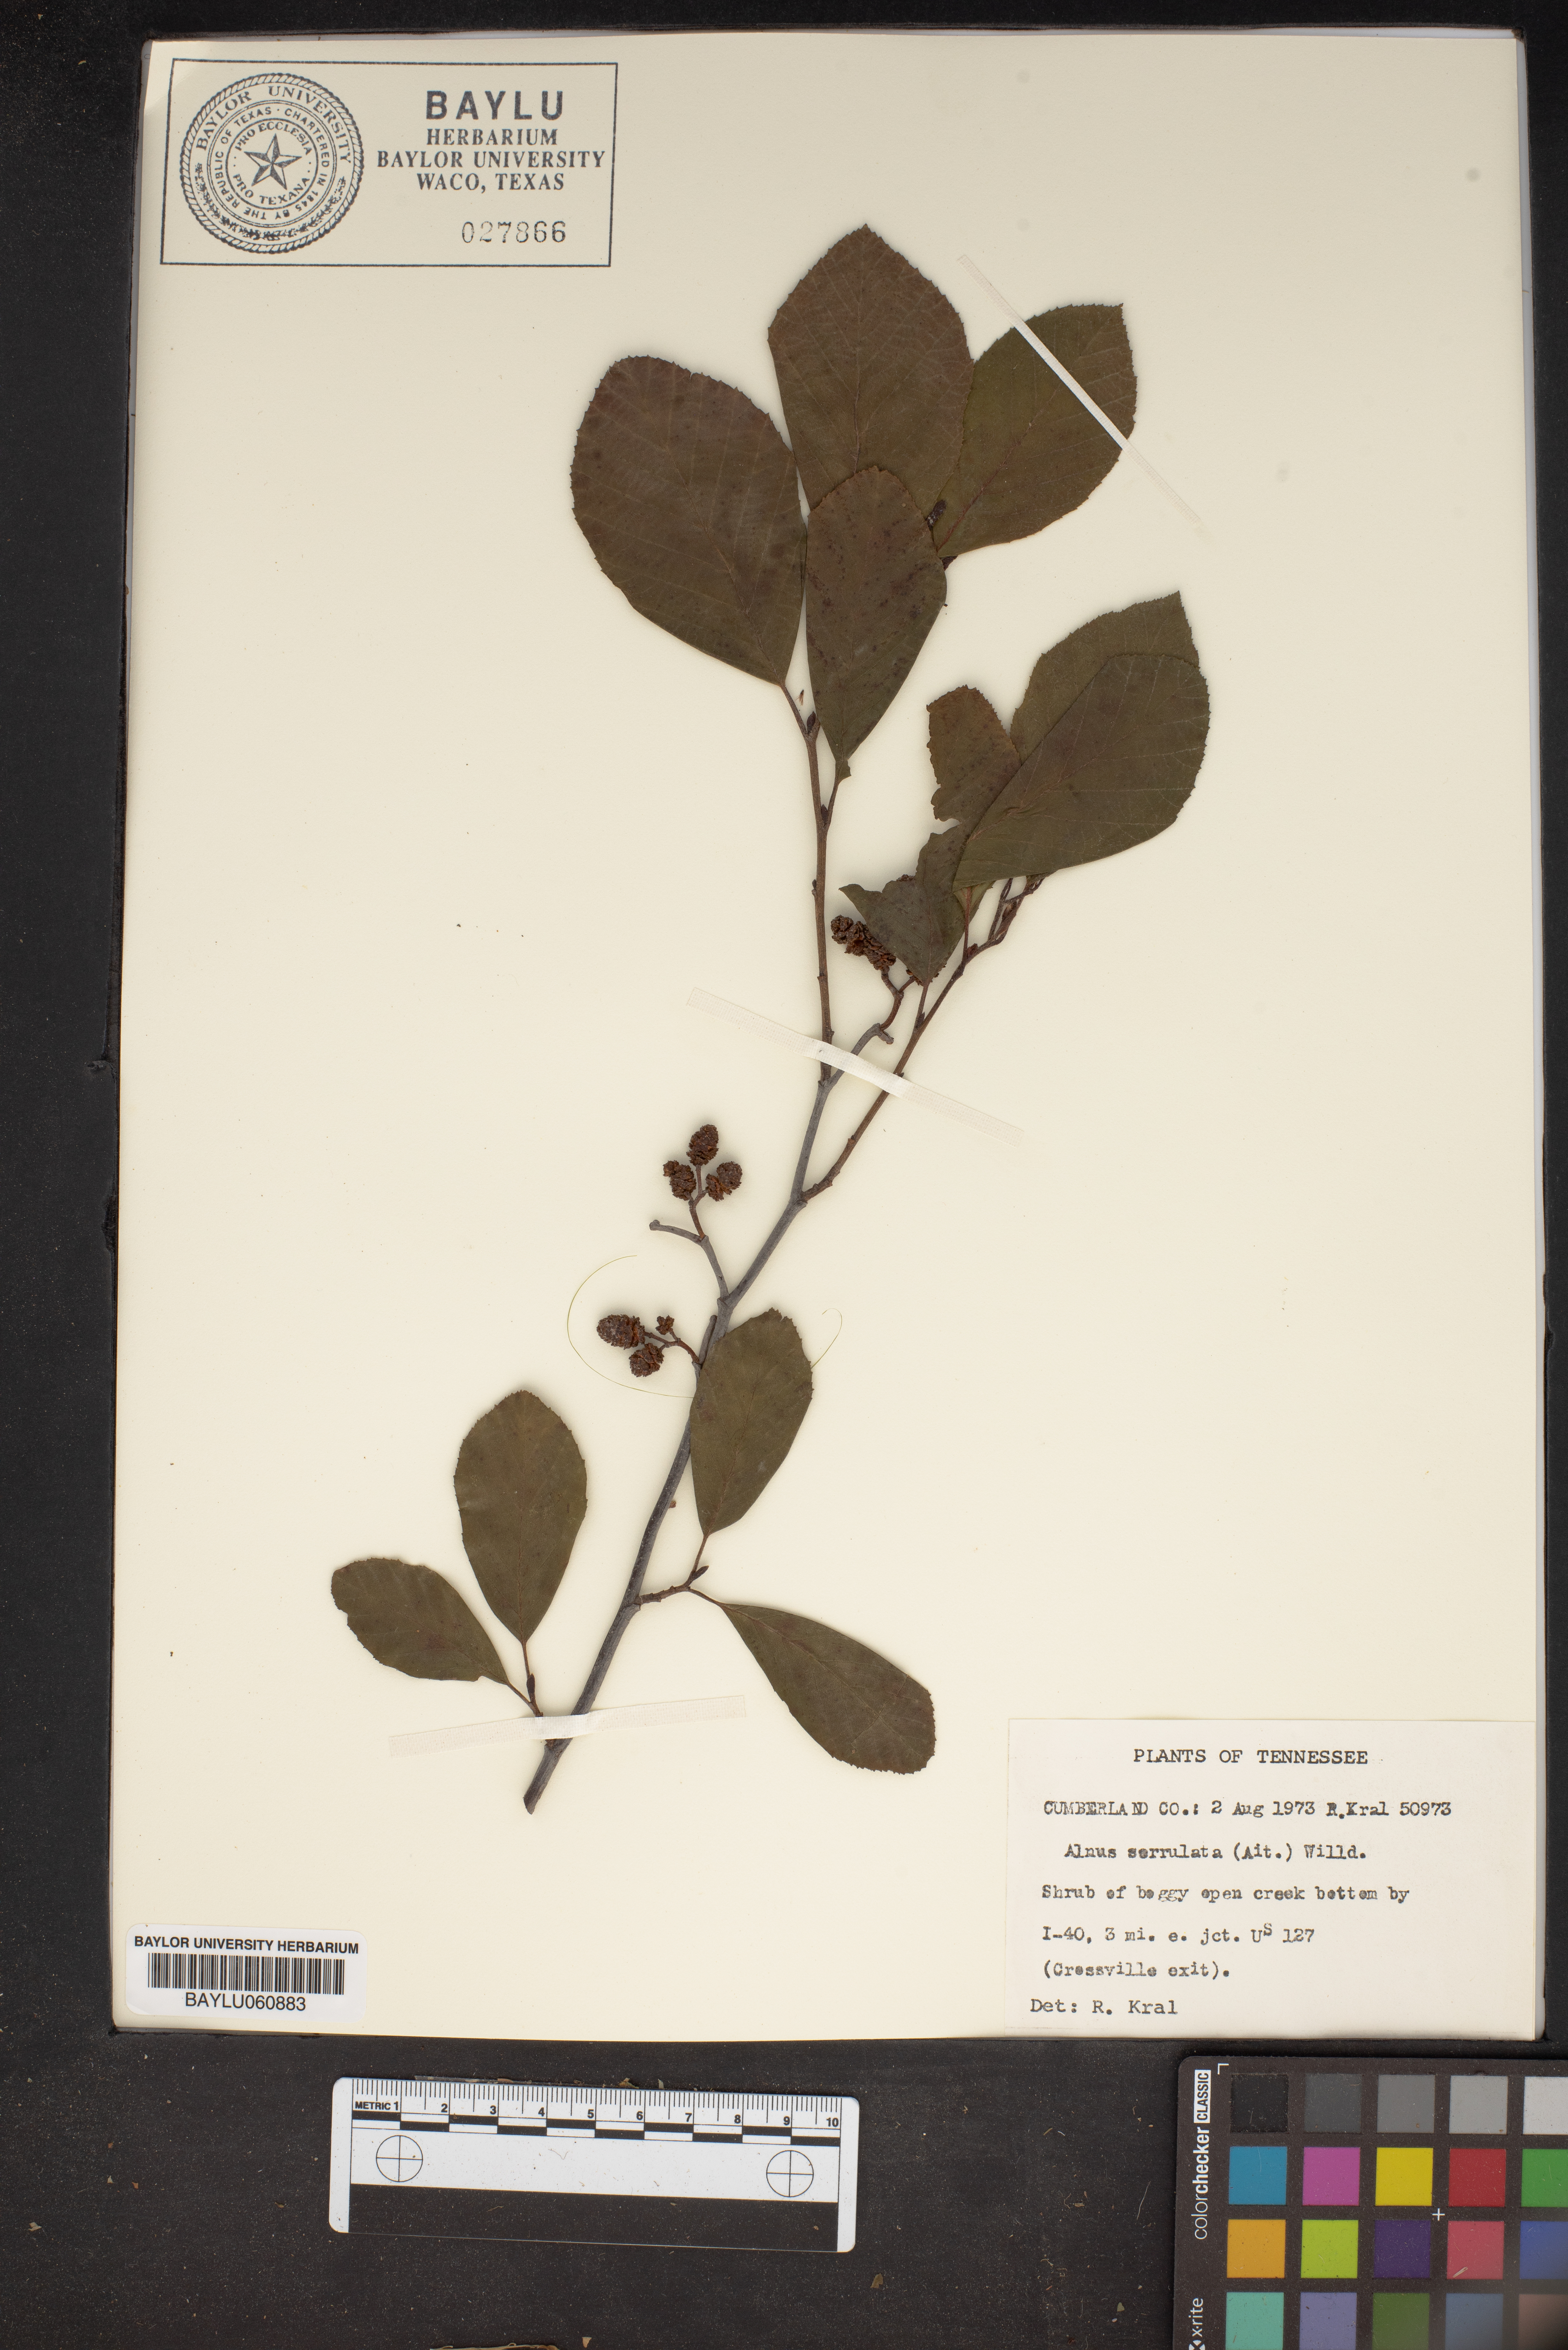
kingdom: Plantae
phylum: Tracheophyta
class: Magnoliopsida
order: Fagales
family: Betulaceae
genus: Alnus
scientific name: Alnus serrulata
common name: Hazel alder
